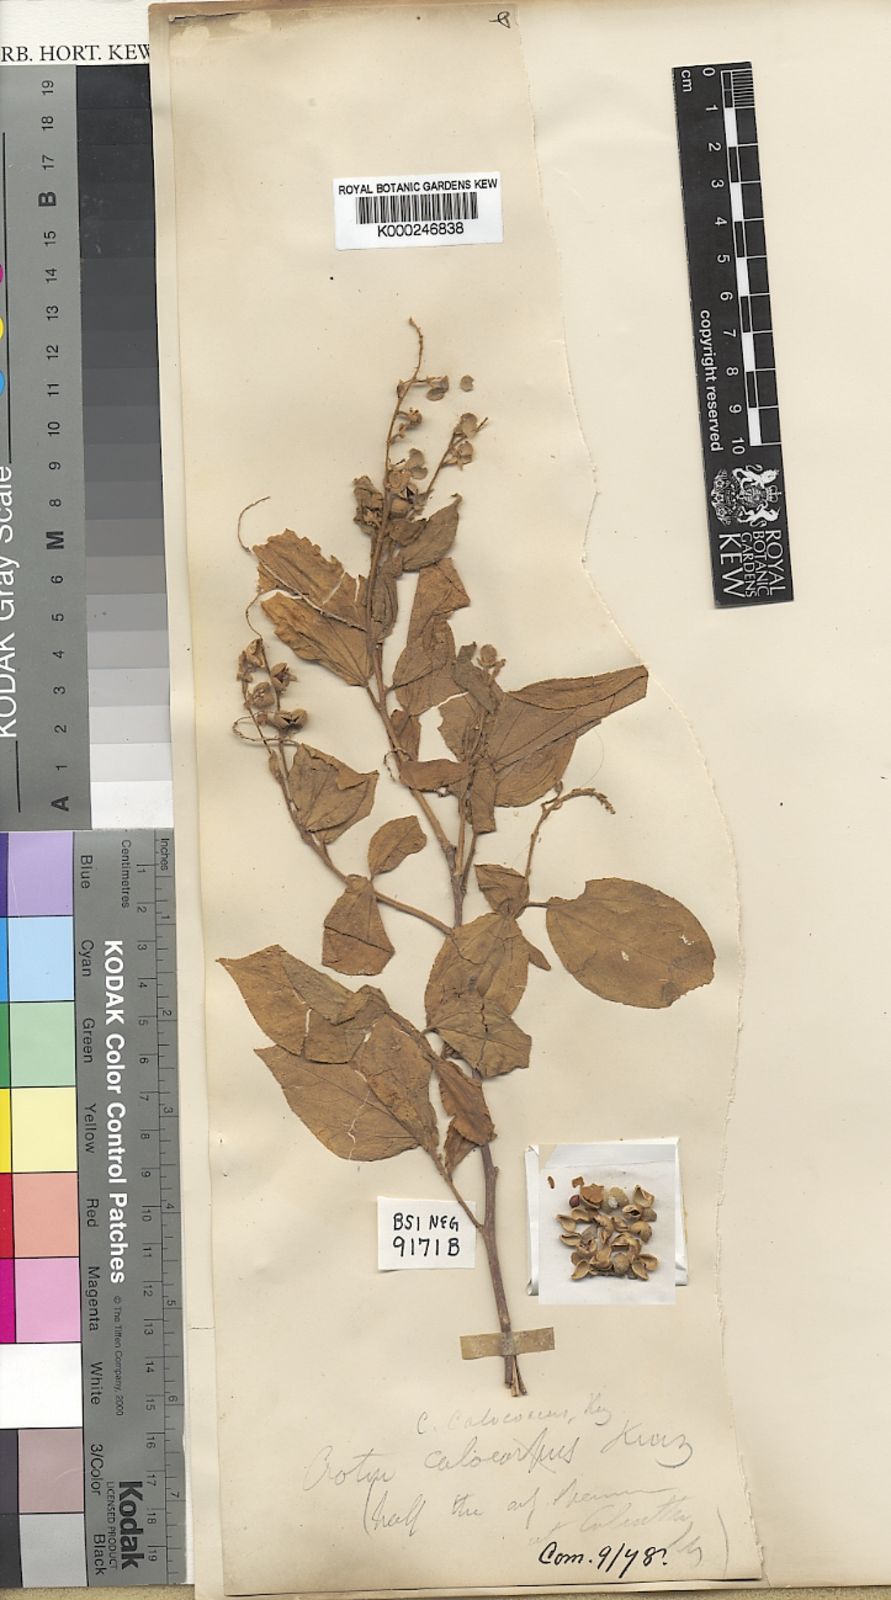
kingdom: Plantae
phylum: Tracheophyta
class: Magnoliopsida
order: Malpighiales
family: Euphorbiaceae
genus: Croton
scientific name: Croton lachnocarpus
